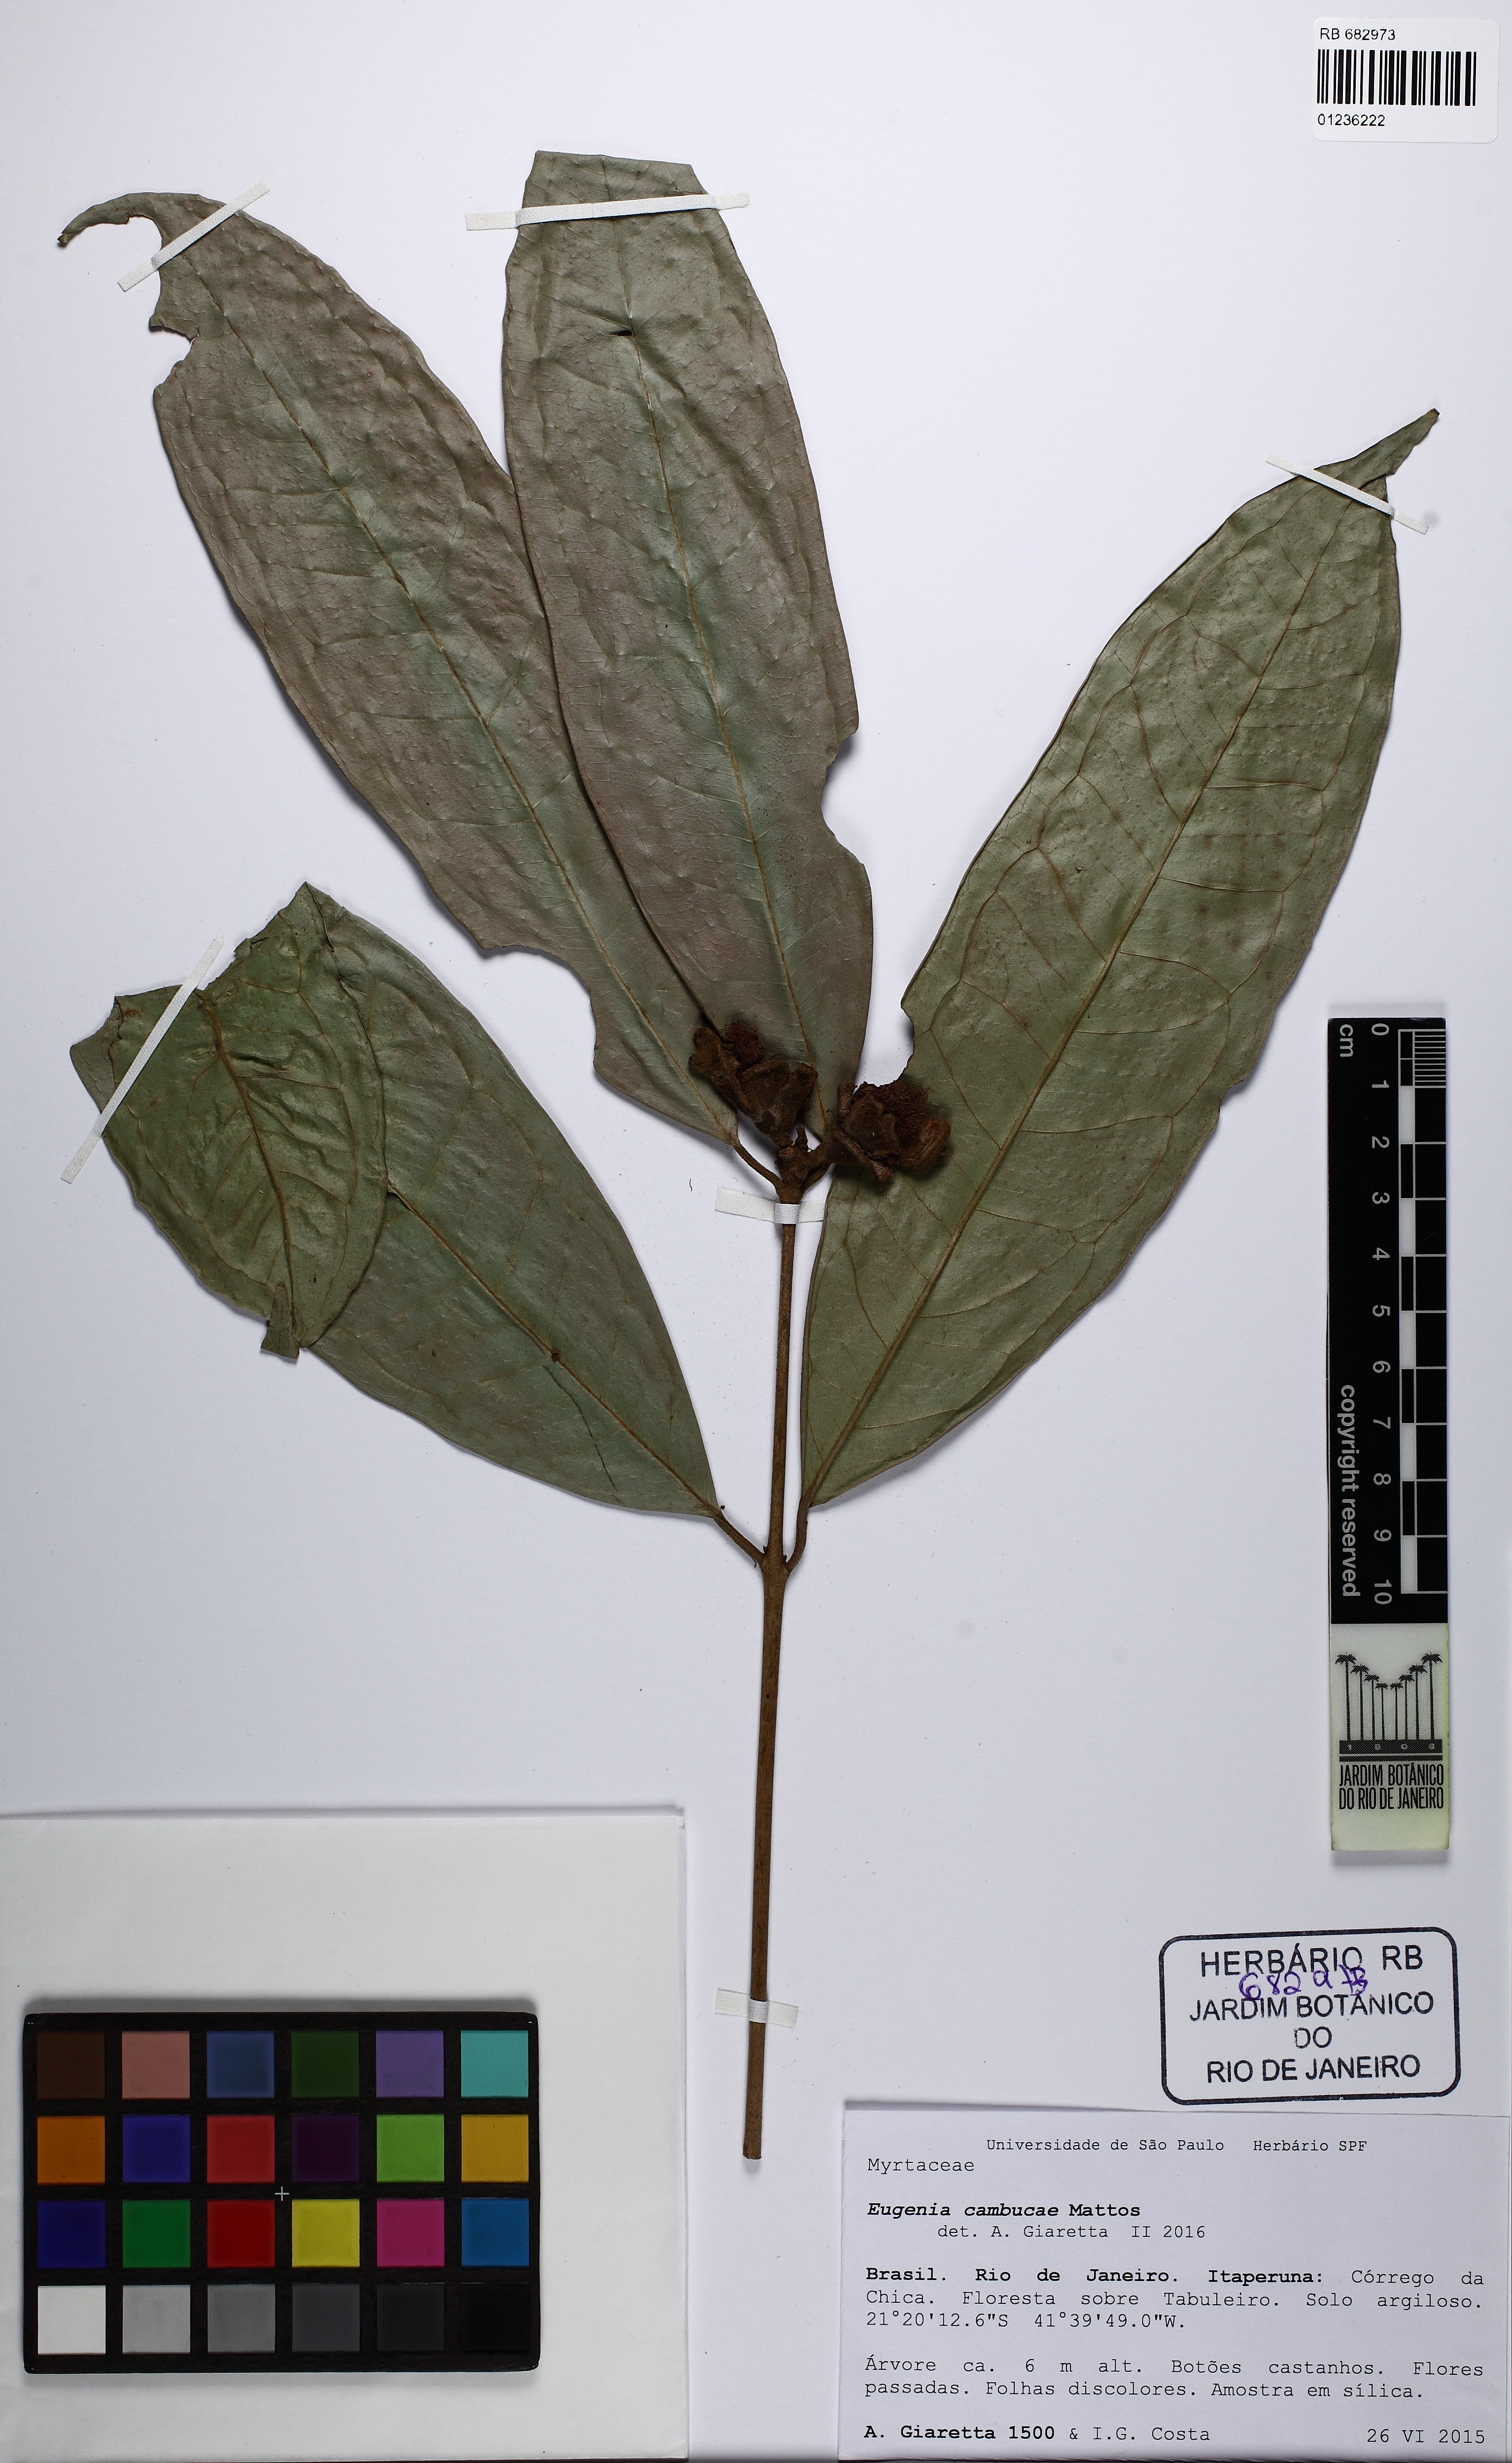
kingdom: Plantae
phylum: Tracheophyta
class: Magnoliopsida
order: Myrtales
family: Myrtaceae
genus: Calycorectes
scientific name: Calycorectes pohlianus
